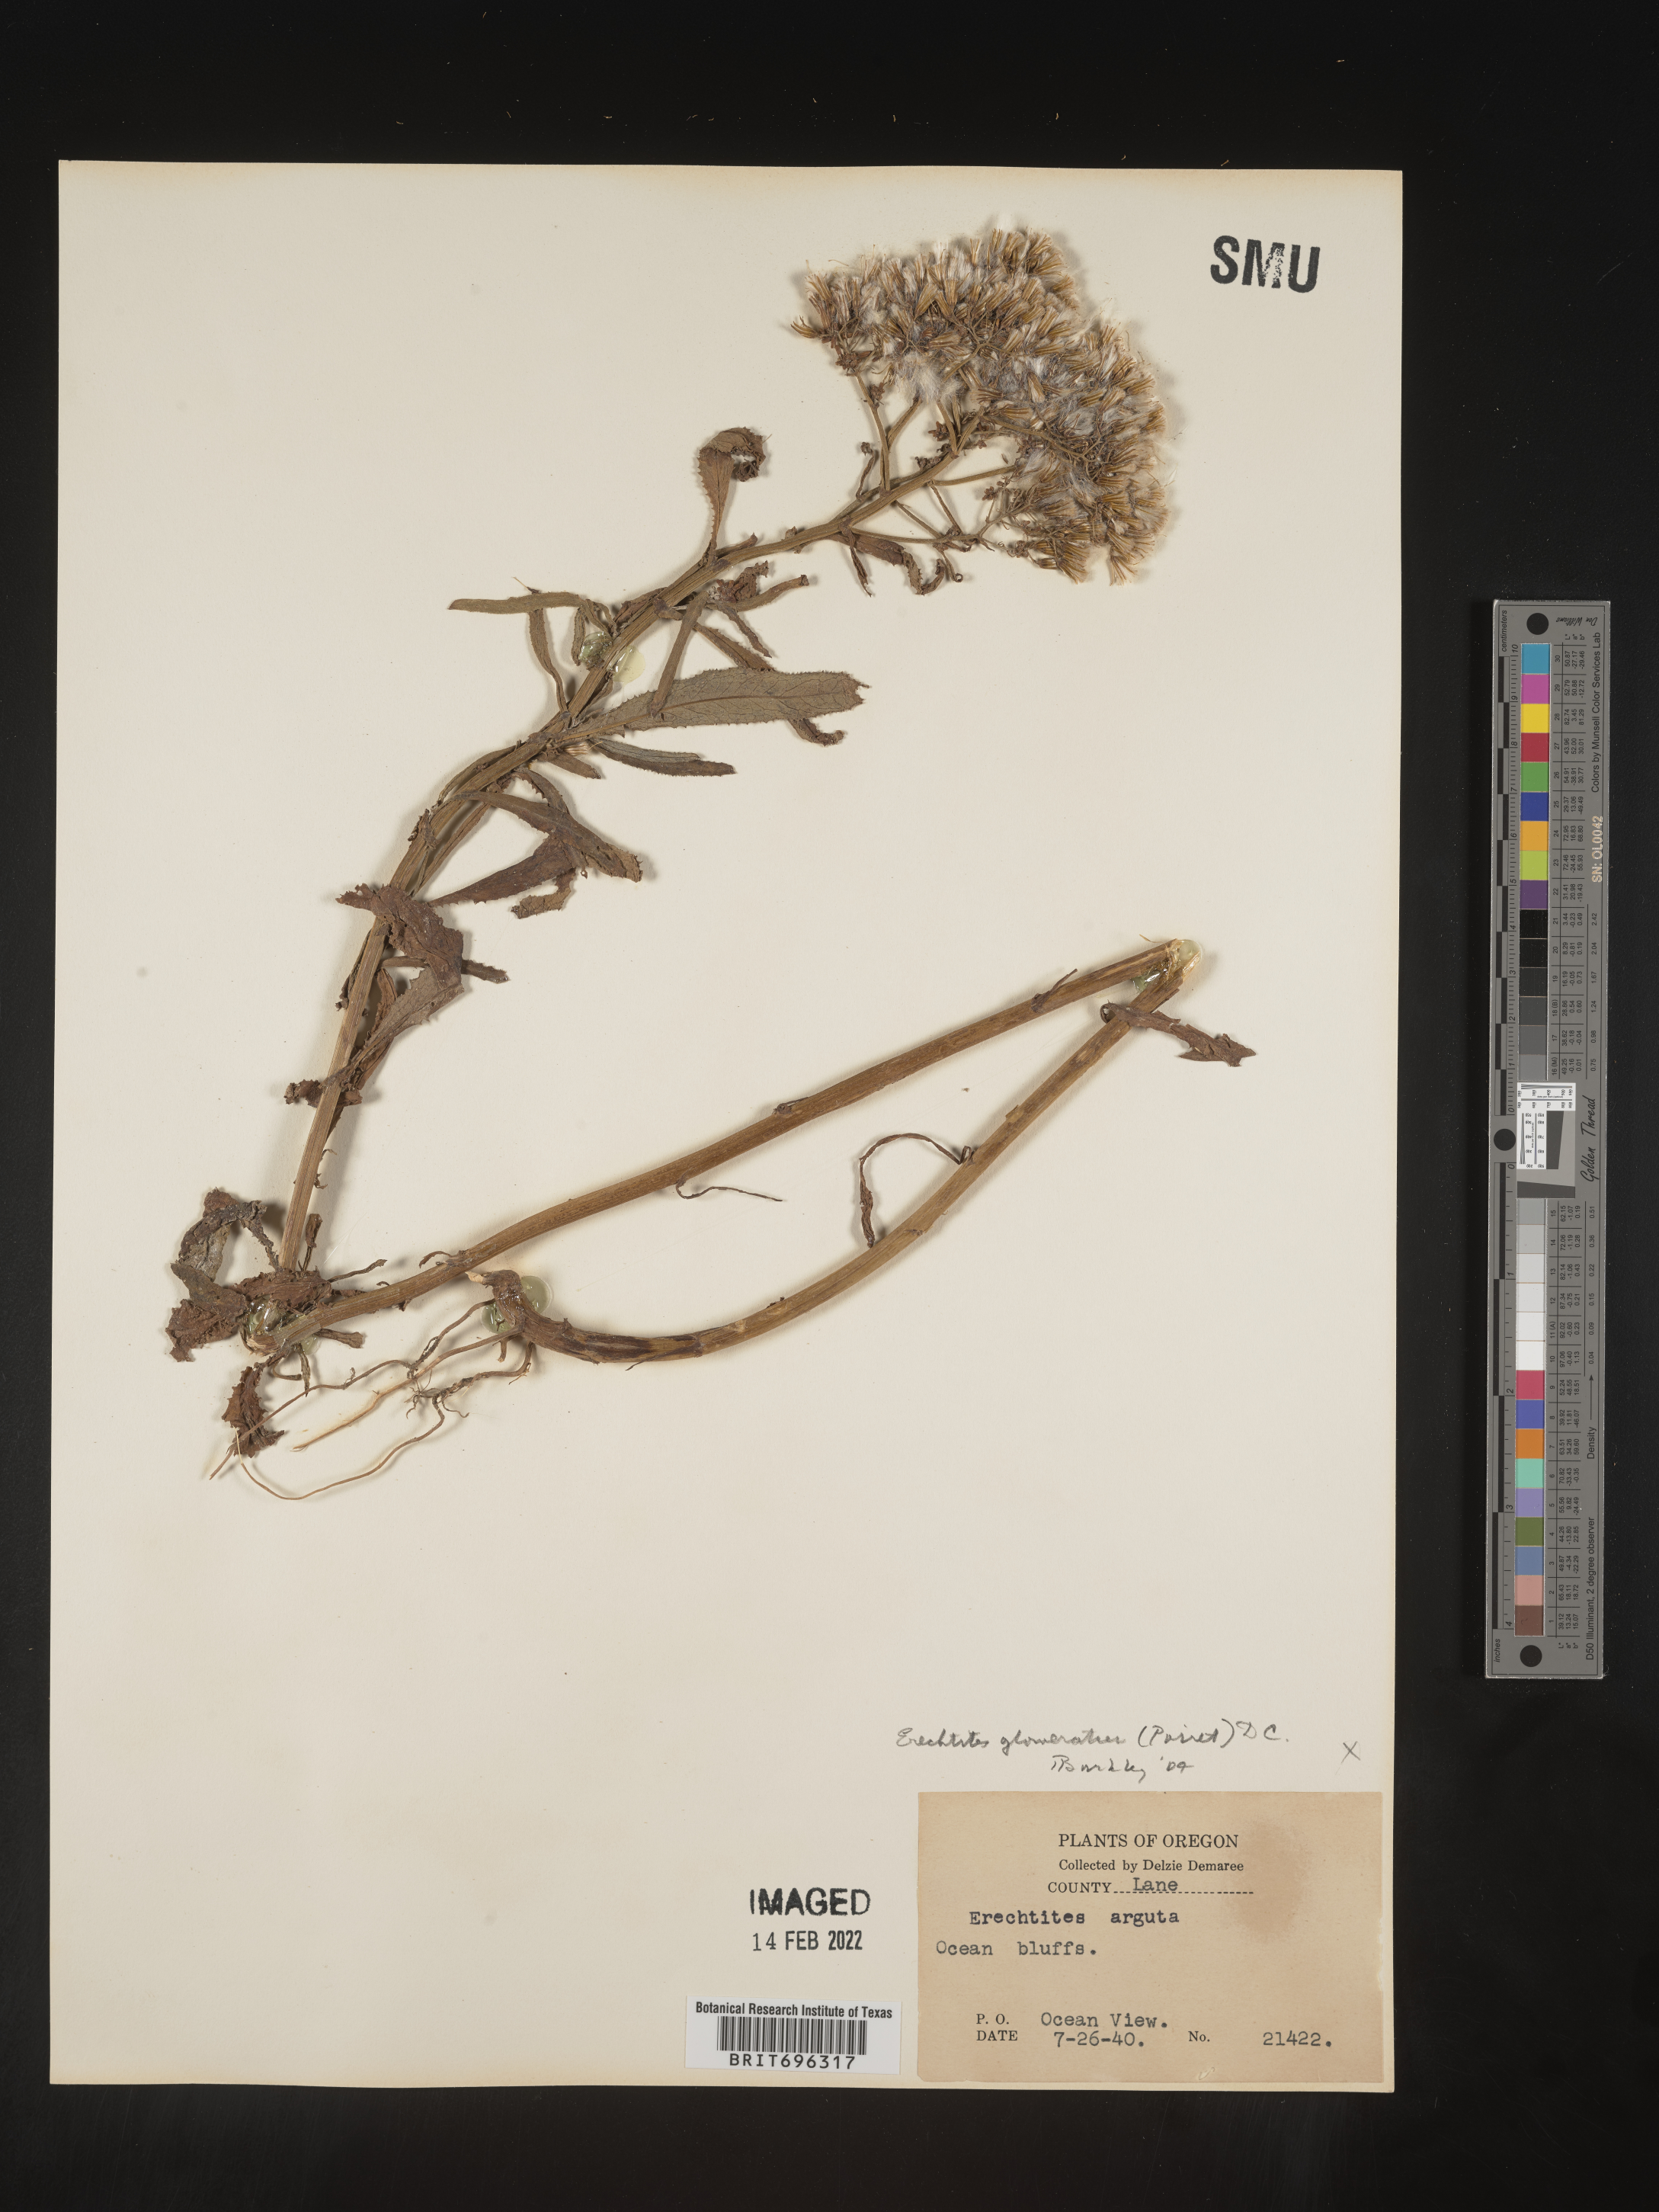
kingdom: Plantae
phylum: Tracheophyta
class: Magnoliopsida
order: Asterales
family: Asteraceae
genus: Senecio
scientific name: Senecio glomeratus
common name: Cutleaf burnweed
